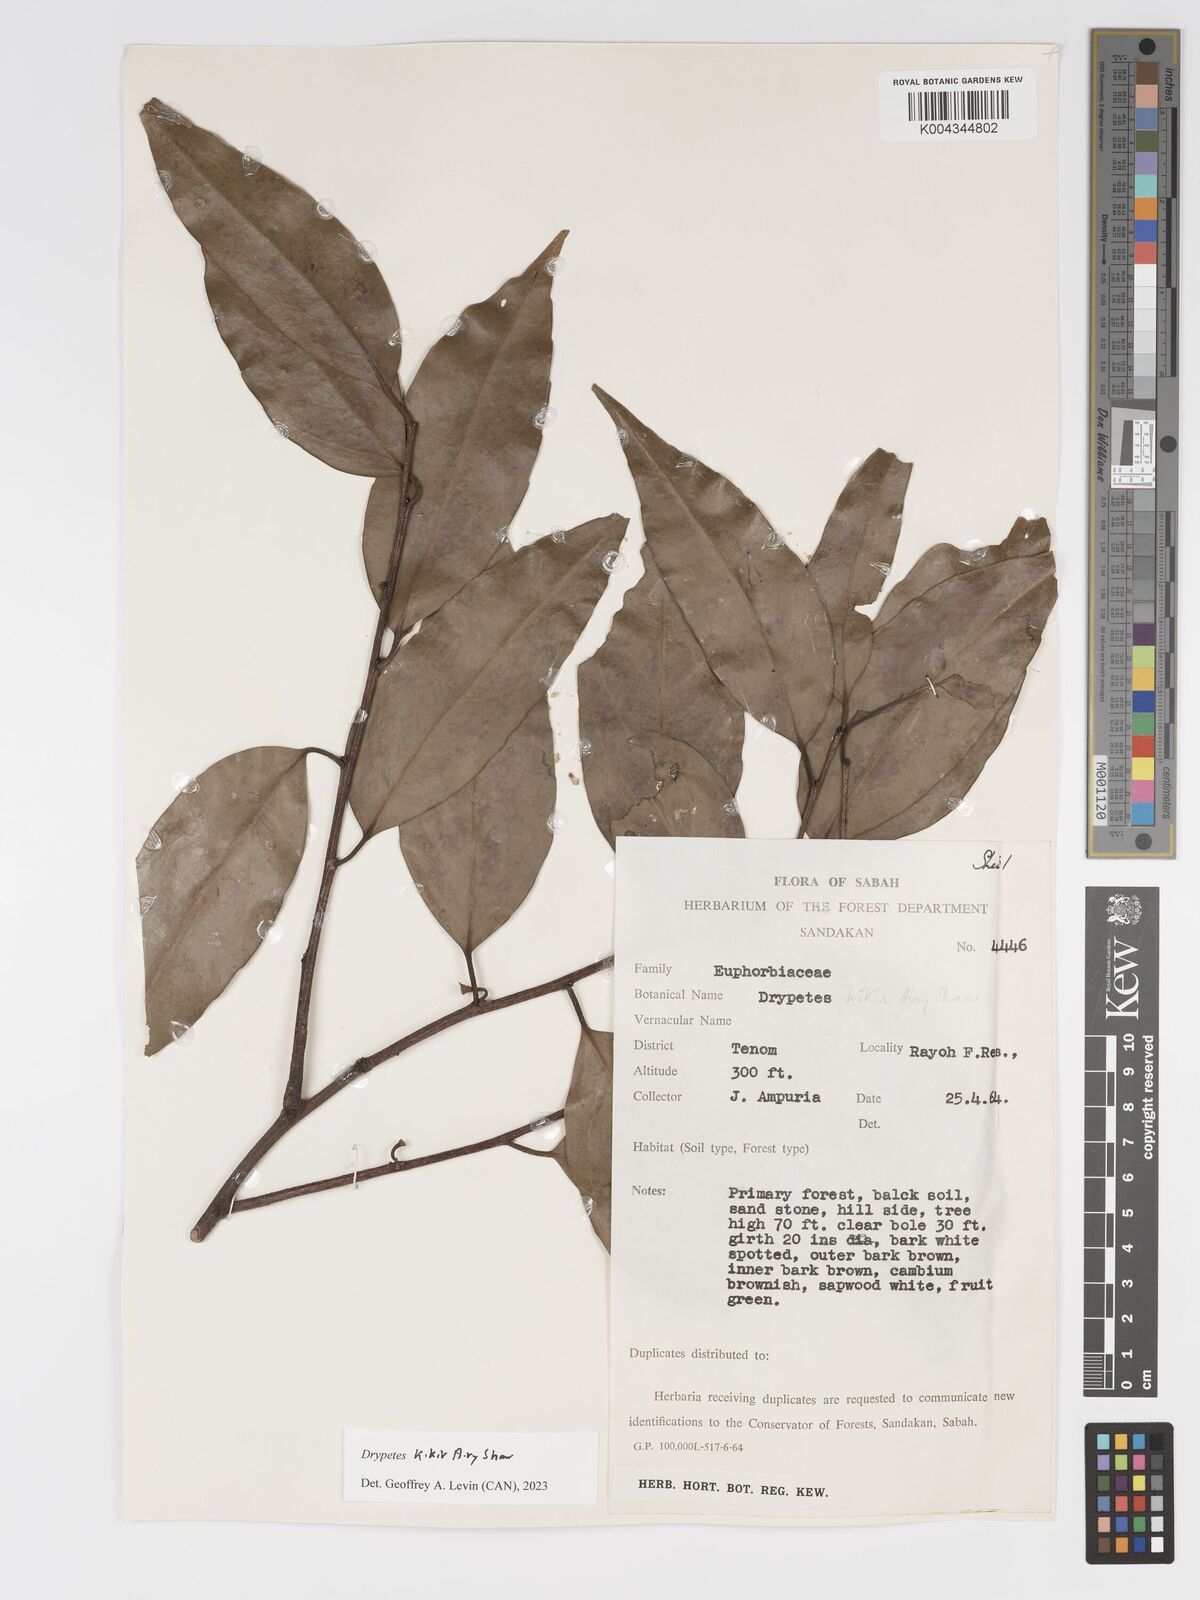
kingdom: Plantae
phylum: Tracheophyta
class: Magnoliopsida
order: Malpighiales
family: Putranjivaceae
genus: Drypetes
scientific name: Drypetes kikir
